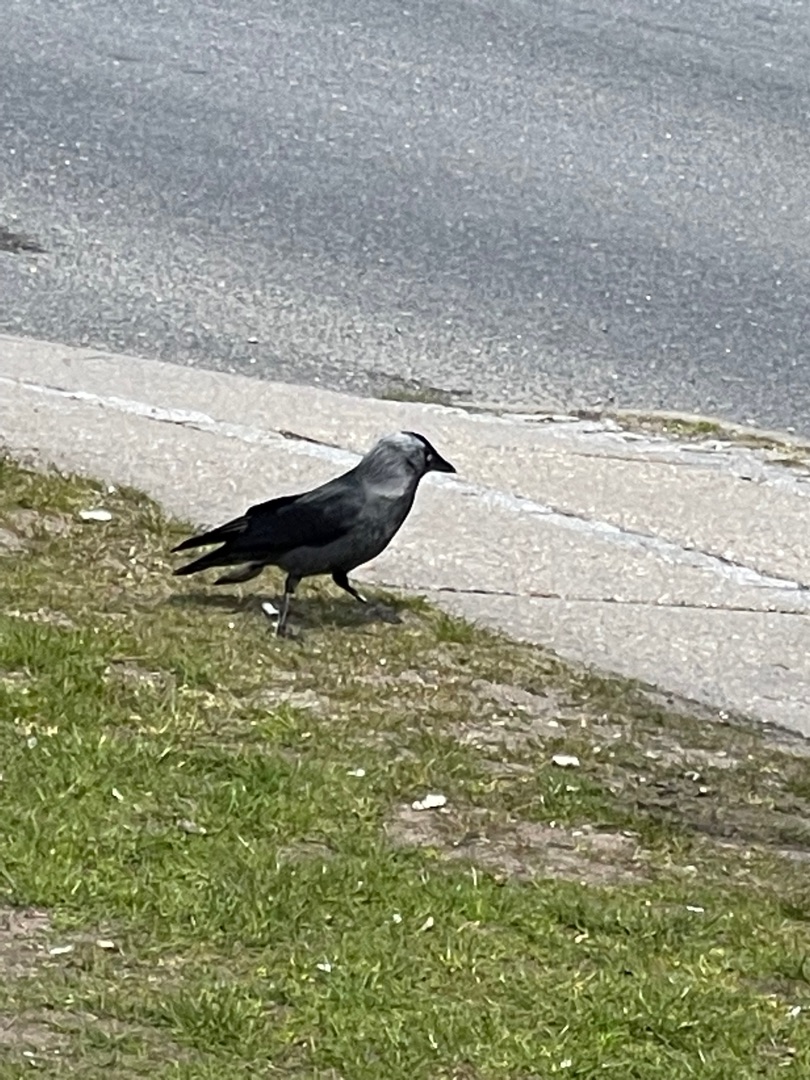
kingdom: Animalia
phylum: Chordata
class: Aves
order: Passeriformes
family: Corvidae
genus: Coloeus
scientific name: Coloeus monedula
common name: Allike
